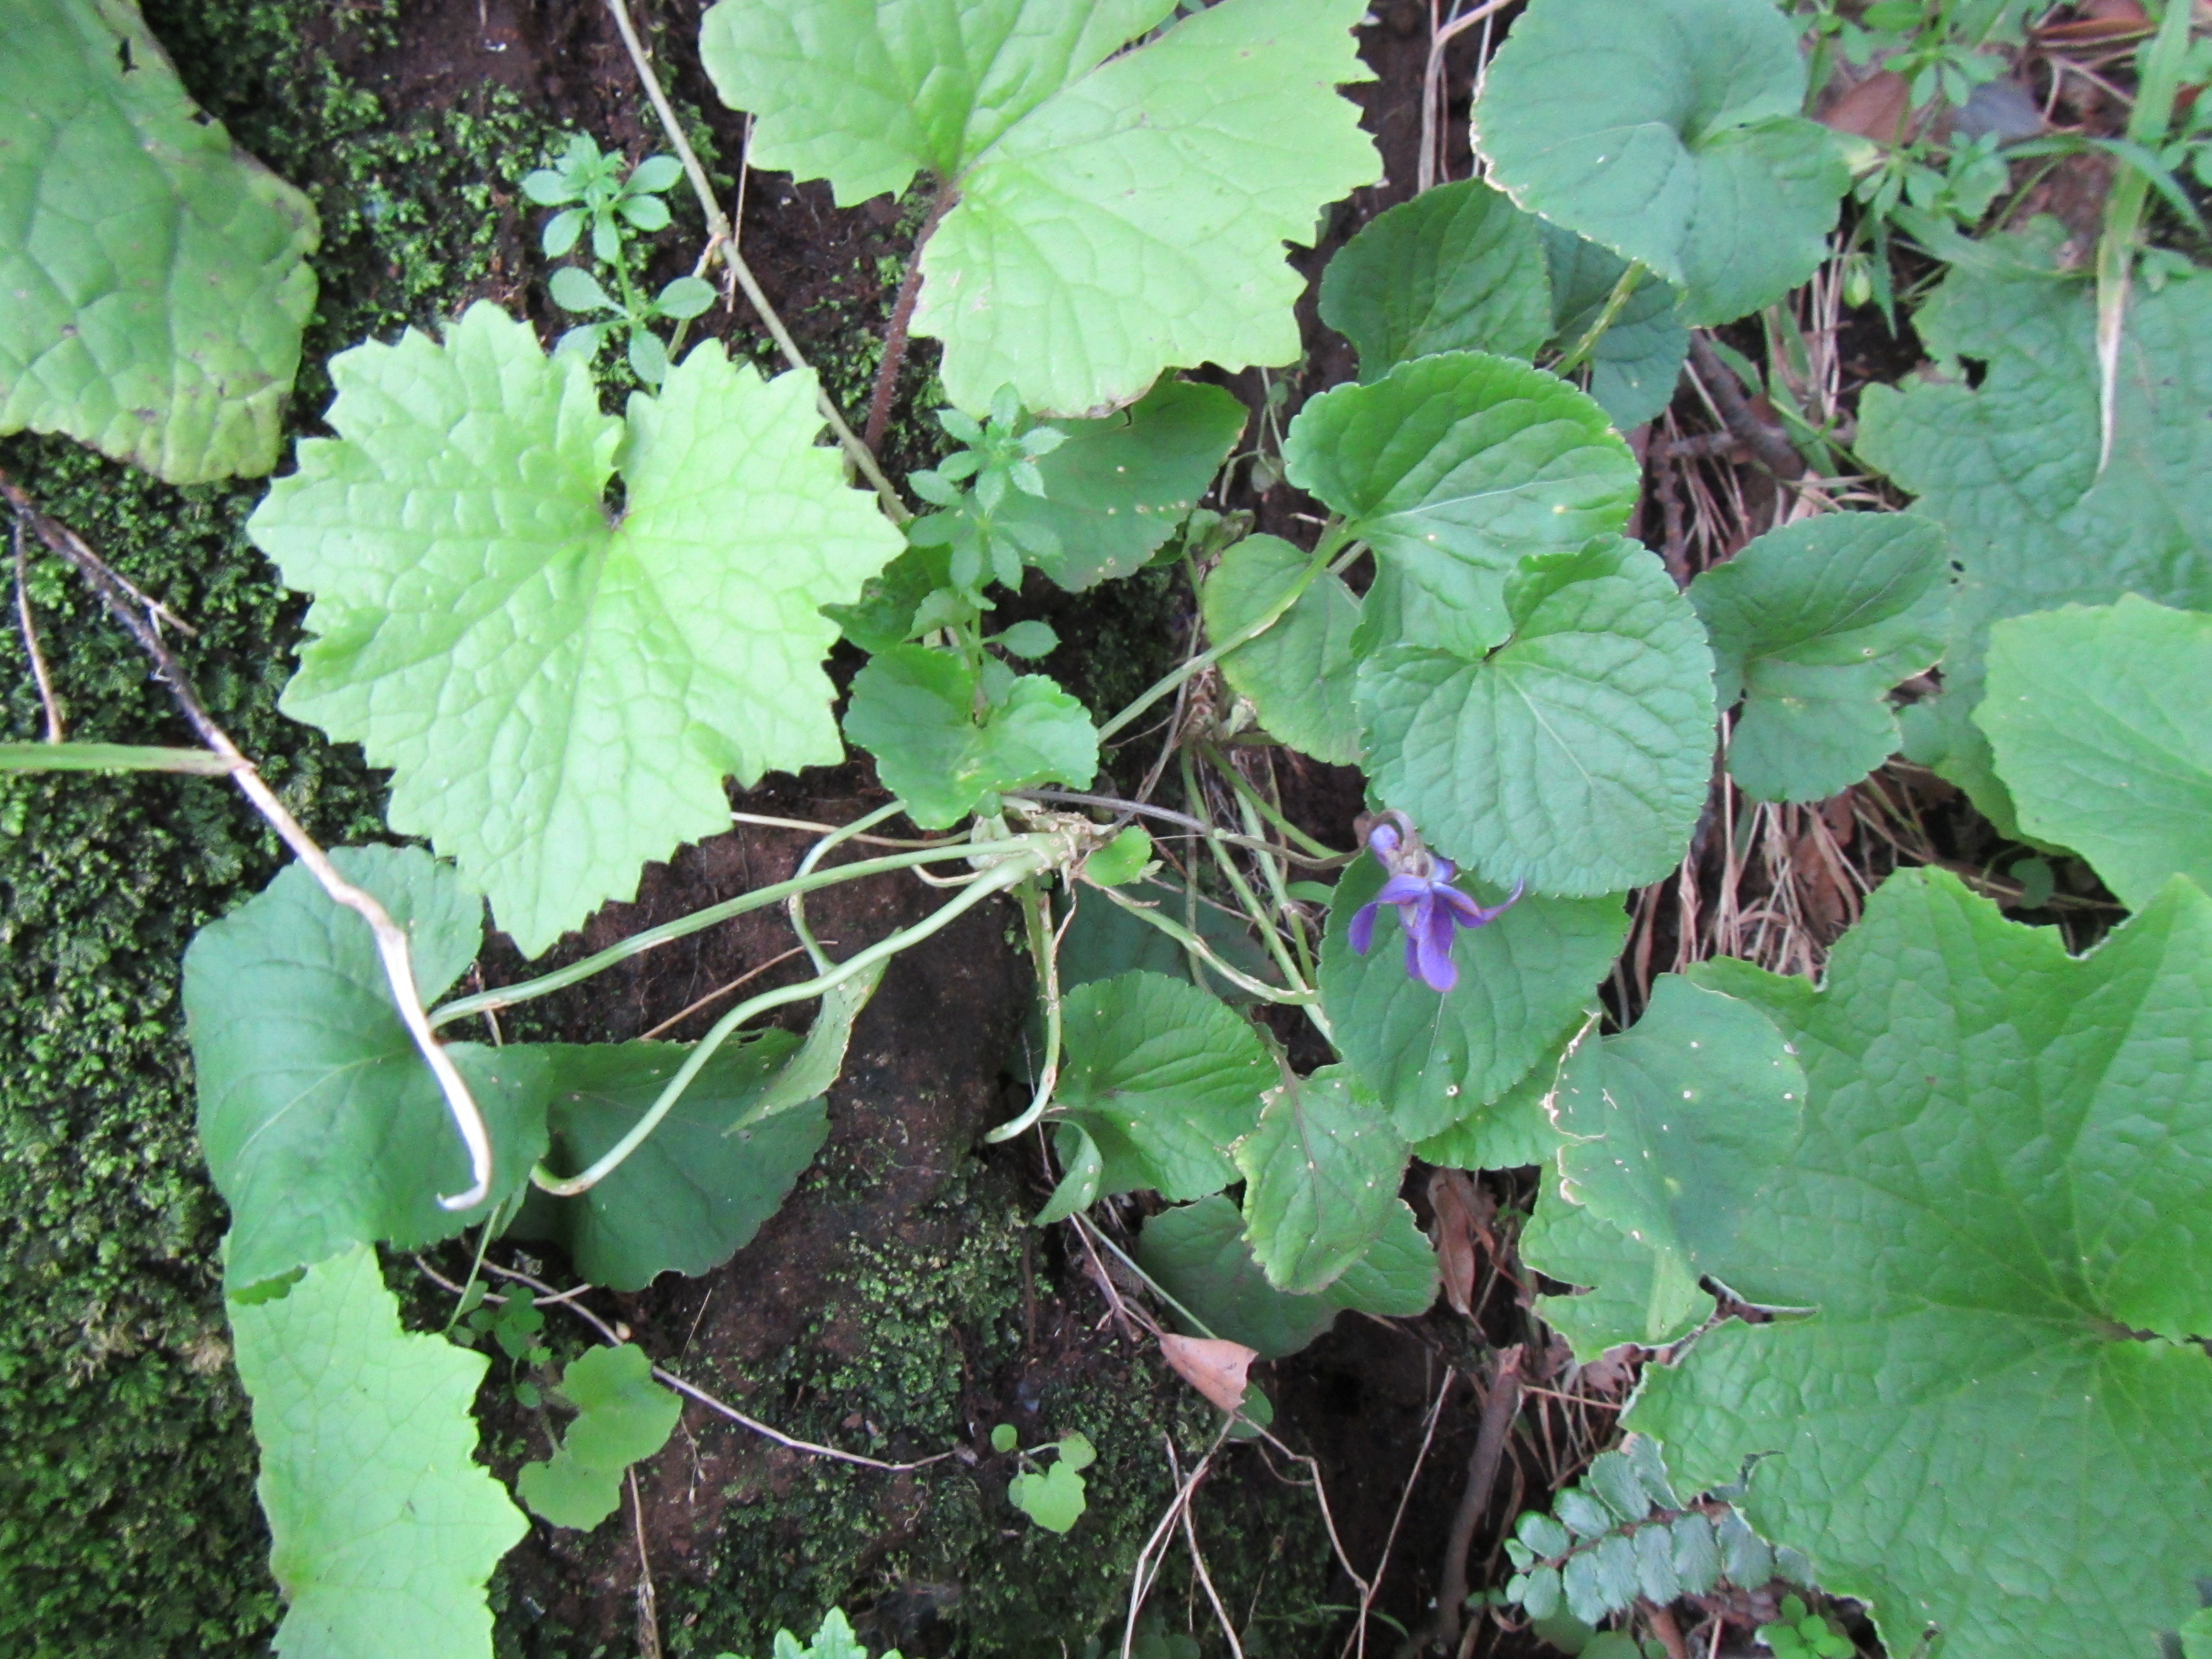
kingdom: Plantae
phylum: Tracheophyta
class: Magnoliopsida
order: Malpighiales
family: Violaceae
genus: Viola
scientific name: Viola odorata
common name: Sweet violet
